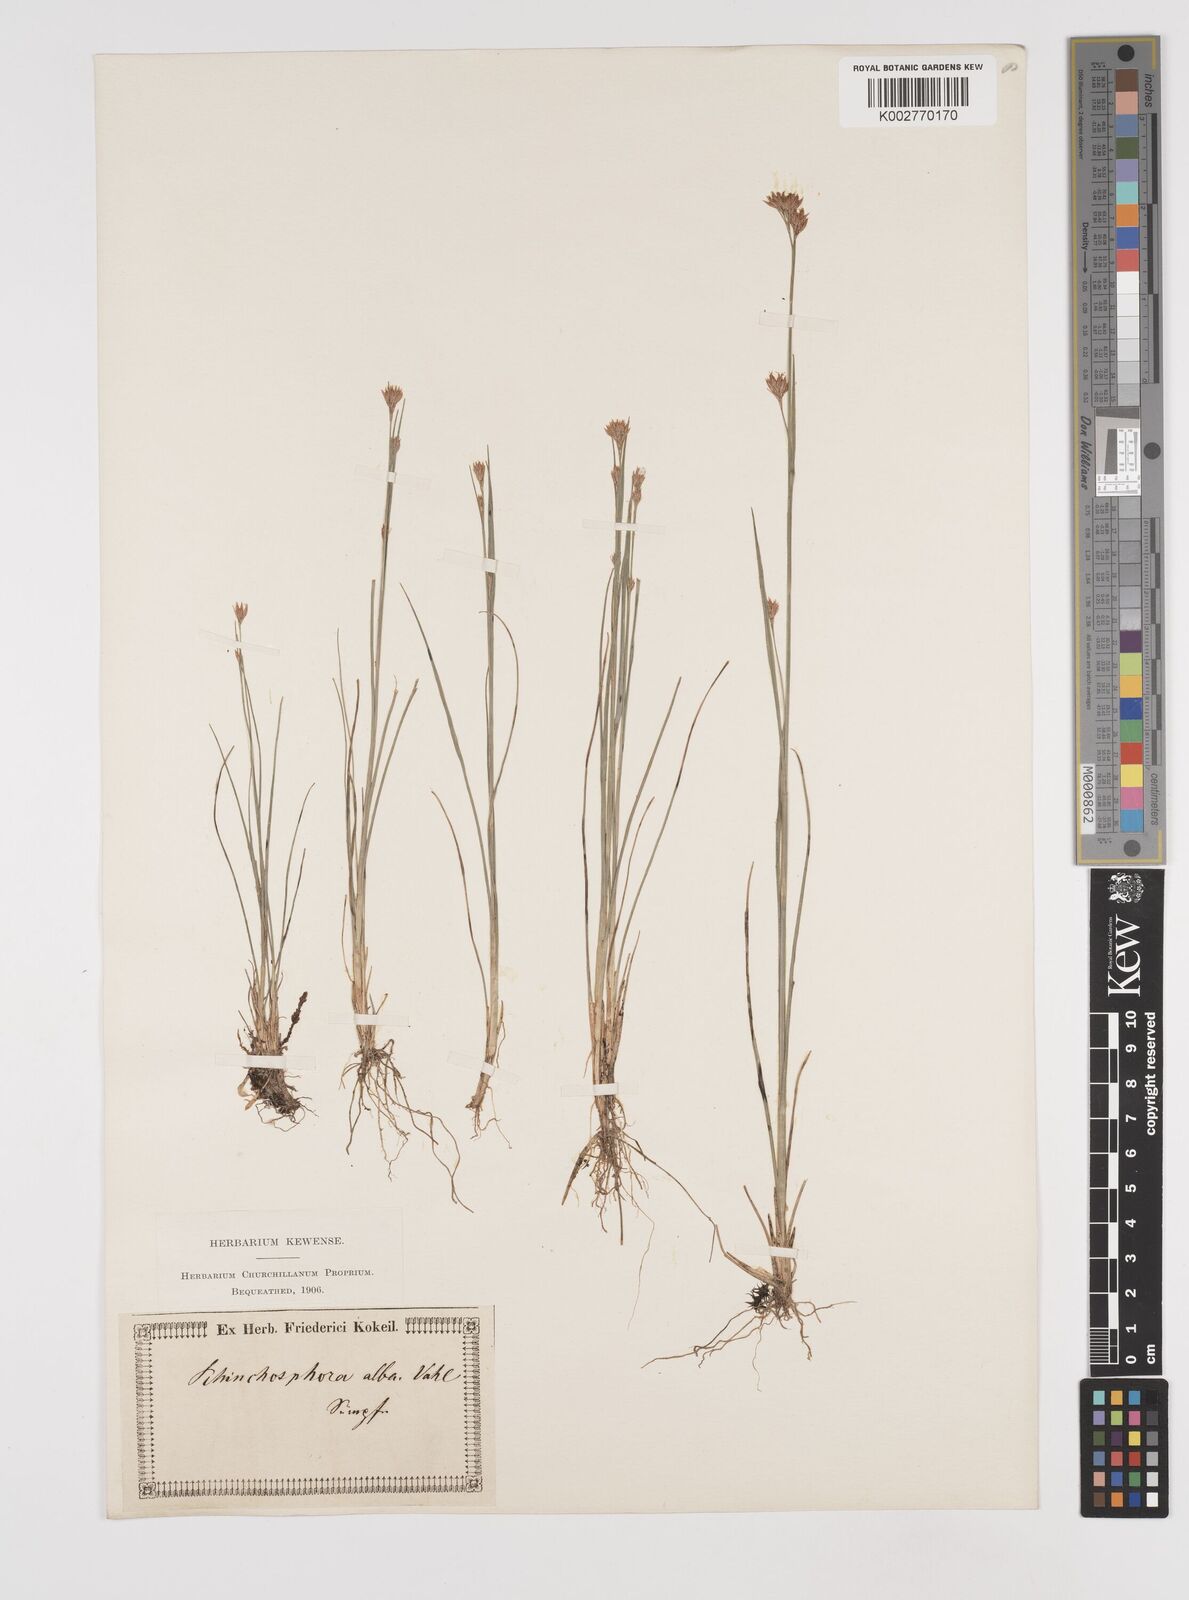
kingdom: Plantae
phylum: Tracheophyta
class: Liliopsida
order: Poales
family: Cyperaceae
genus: Rhynchospora
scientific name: Rhynchospora alba
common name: White beak-sedge
